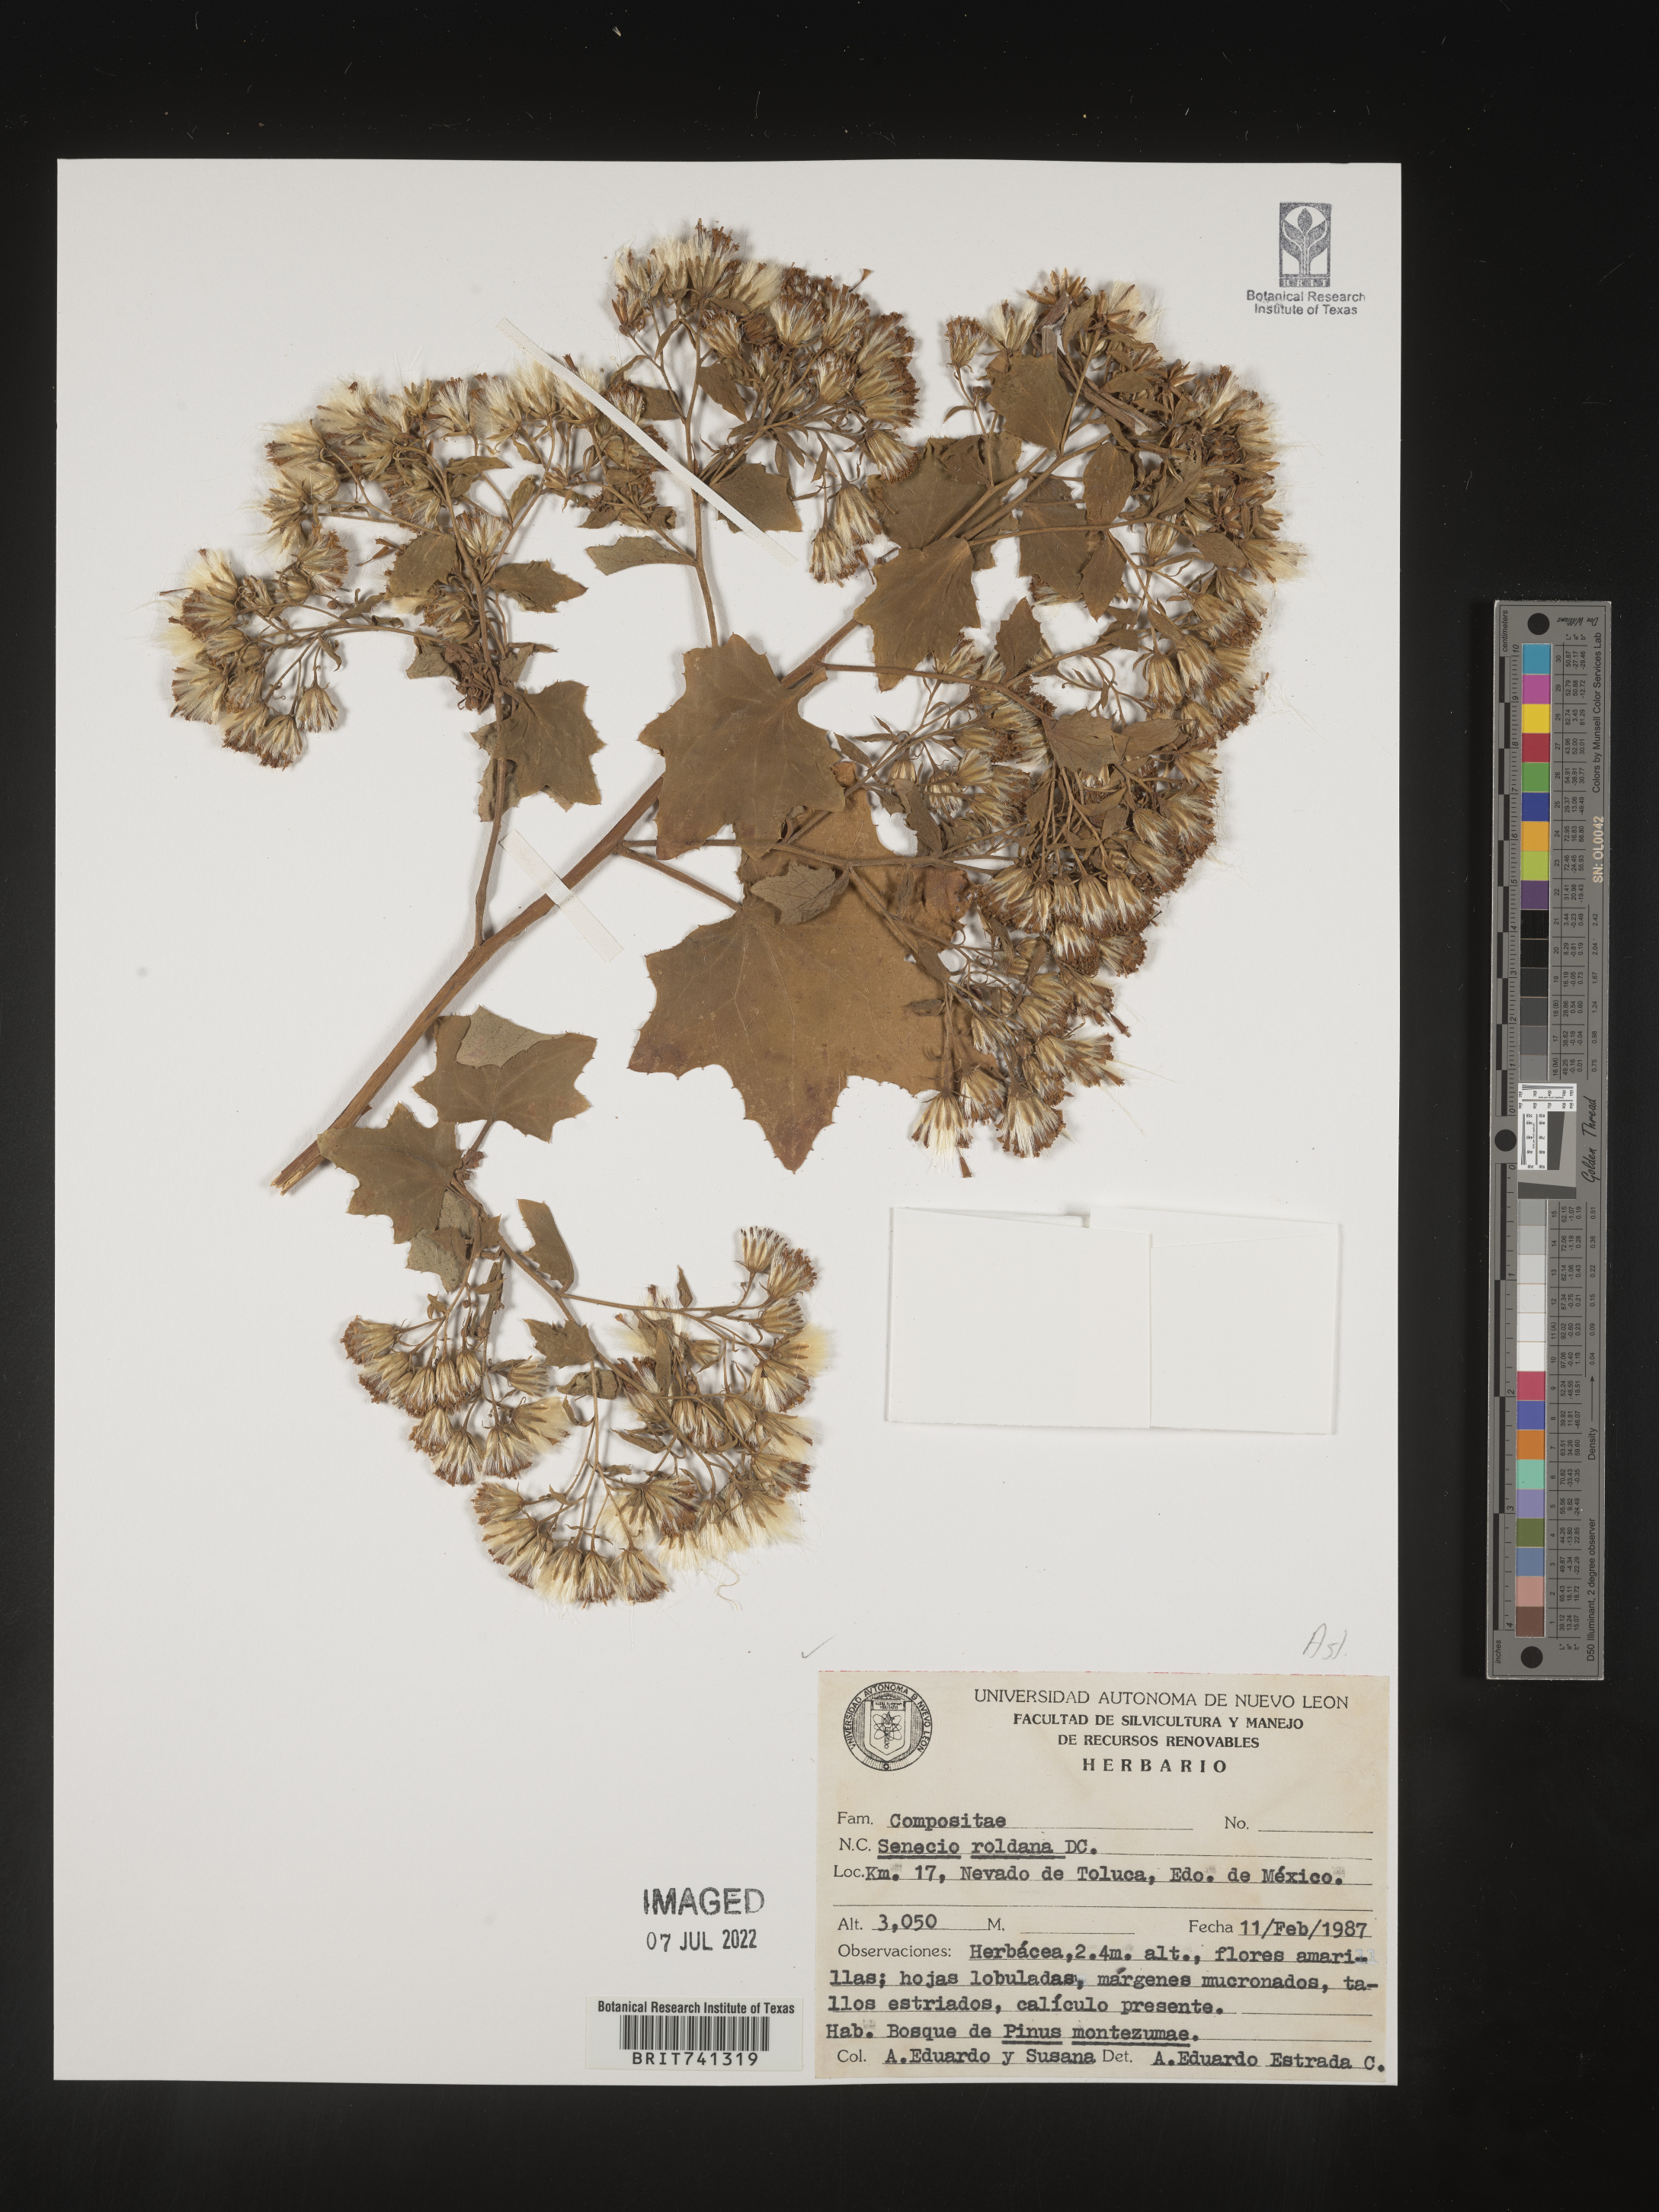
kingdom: Plantae
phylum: Tracheophyta
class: Magnoliopsida
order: Asterales
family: Asteraceae
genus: Roldana
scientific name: Roldana lobata
